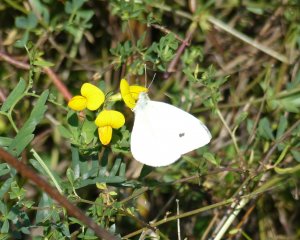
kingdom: Animalia
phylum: Arthropoda
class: Insecta
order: Lepidoptera
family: Pieridae
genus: Pieris
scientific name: Pieris rapae
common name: Cabbage White
